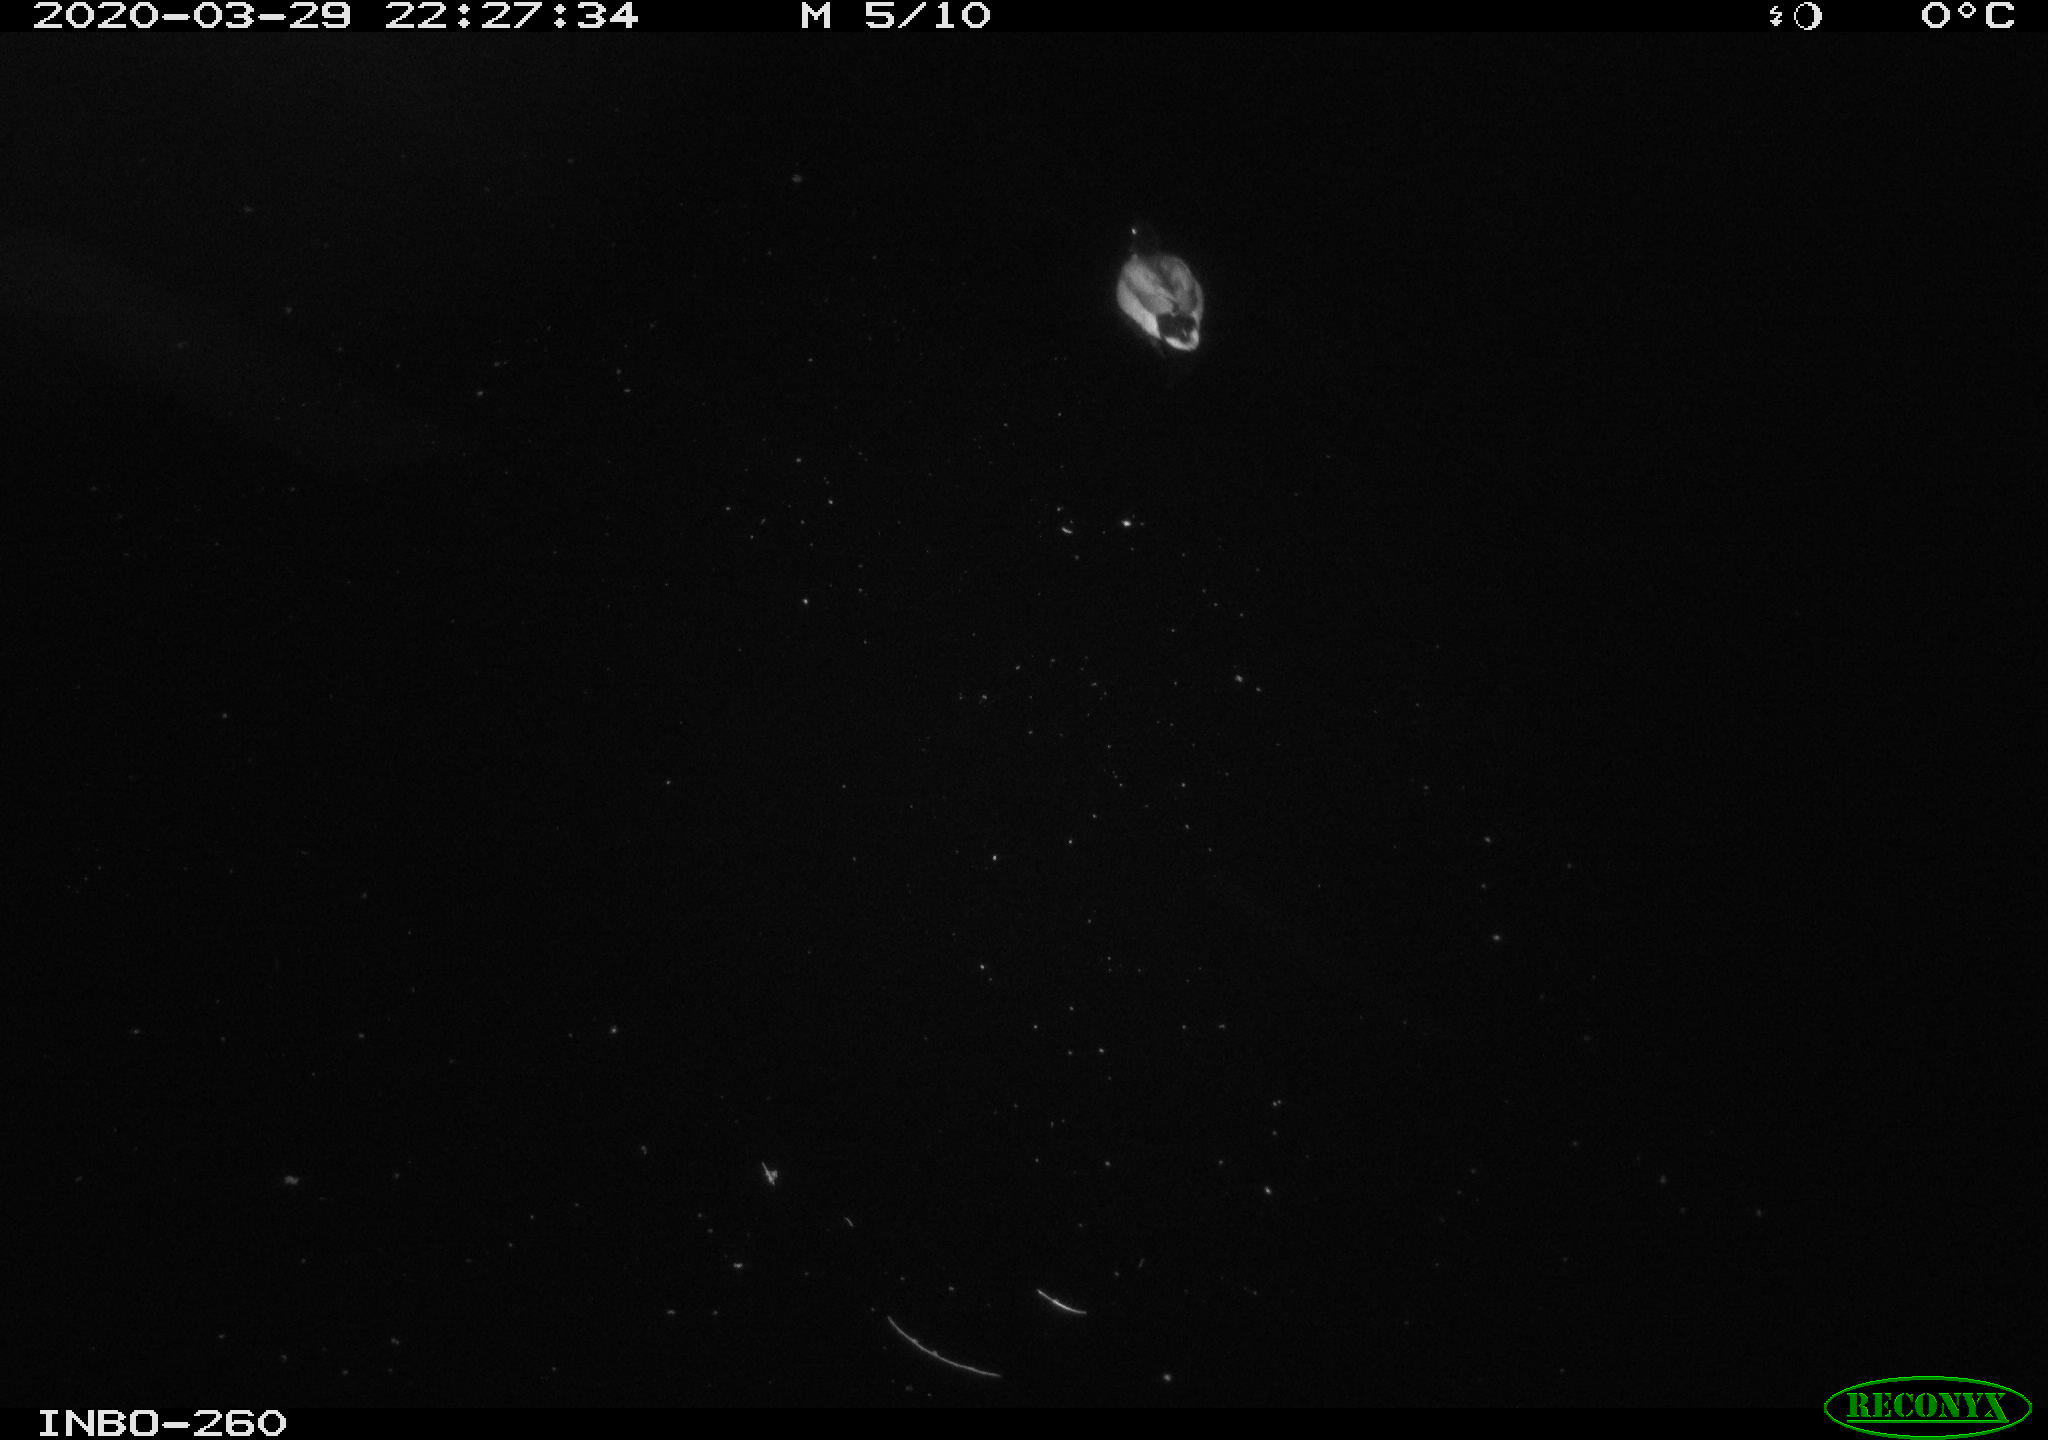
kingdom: Animalia
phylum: Chordata
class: Aves
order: Anseriformes
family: Anatidae
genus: Anas
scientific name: Anas platyrhynchos
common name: Mallard
